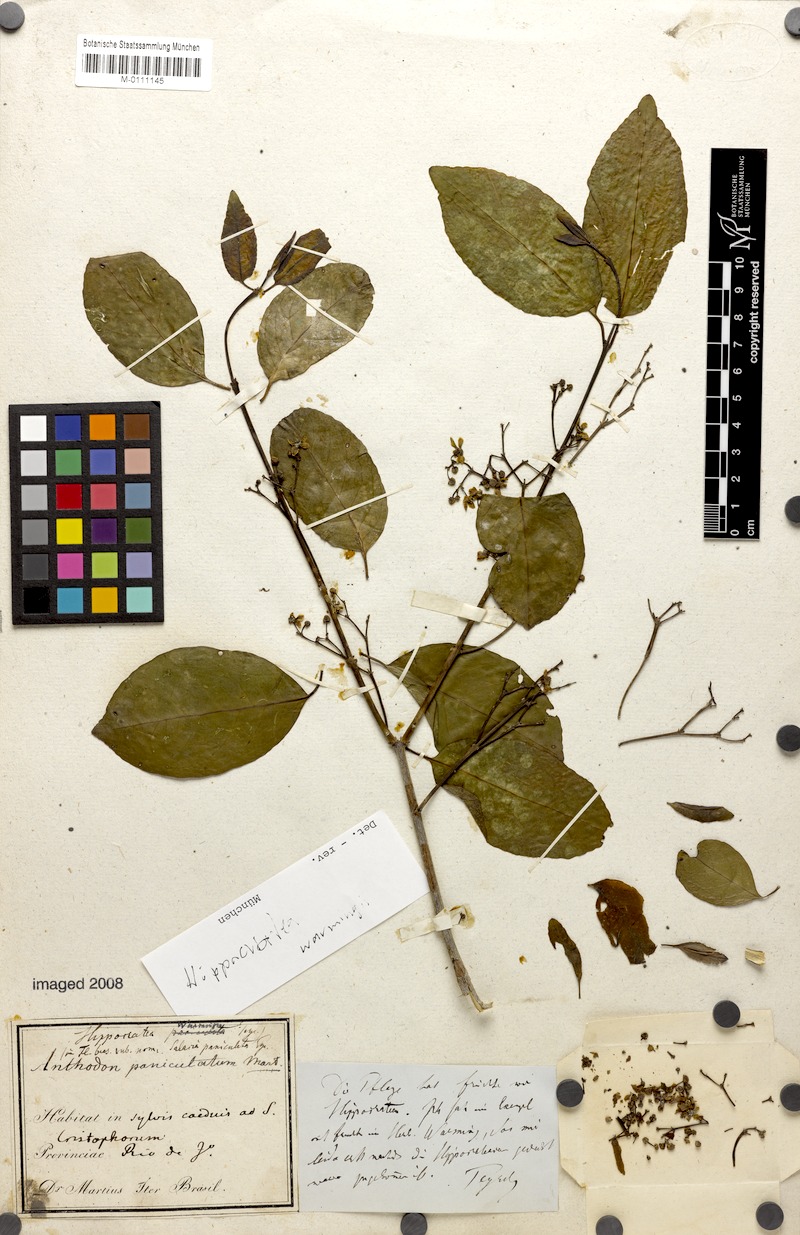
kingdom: Plantae
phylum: Tracheophyta
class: Magnoliopsida
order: Celastrales
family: Celastraceae
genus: Semialarium
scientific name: Semialarium paniculatum
